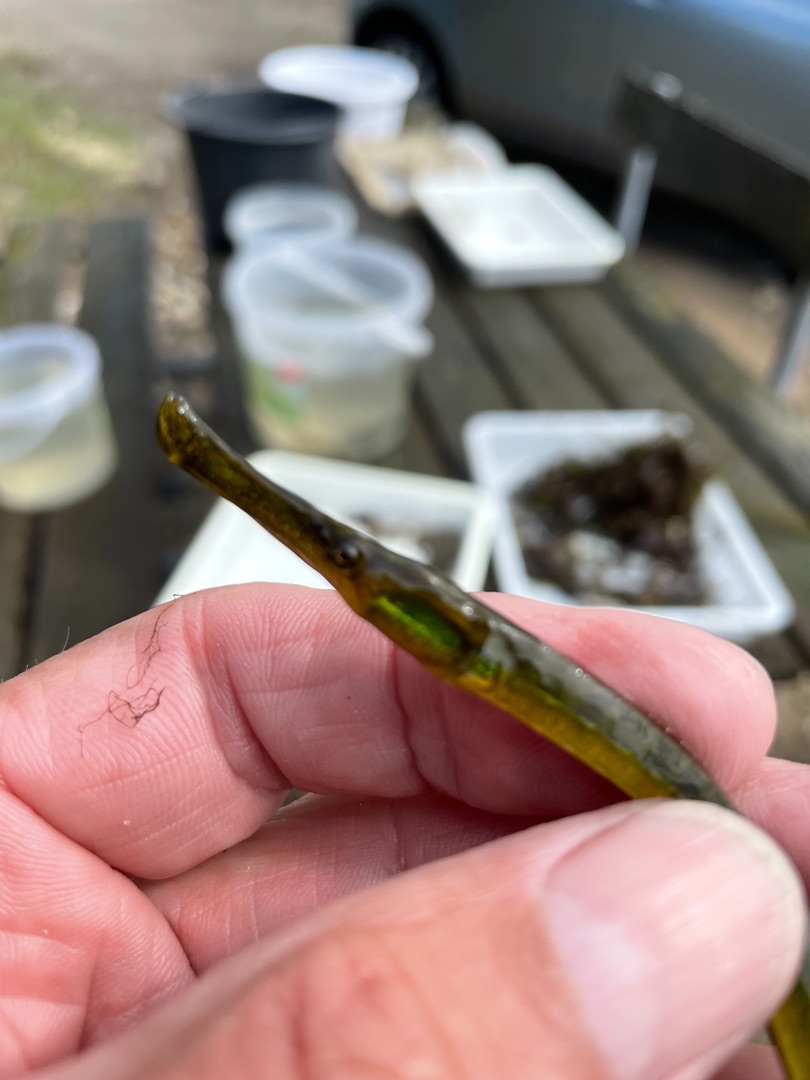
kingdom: Animalia
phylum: Chordata
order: Syngnathiformes
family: Syngnathidae
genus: Syngnathus
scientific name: Syngnathus typhle
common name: Almindelig tangnål
